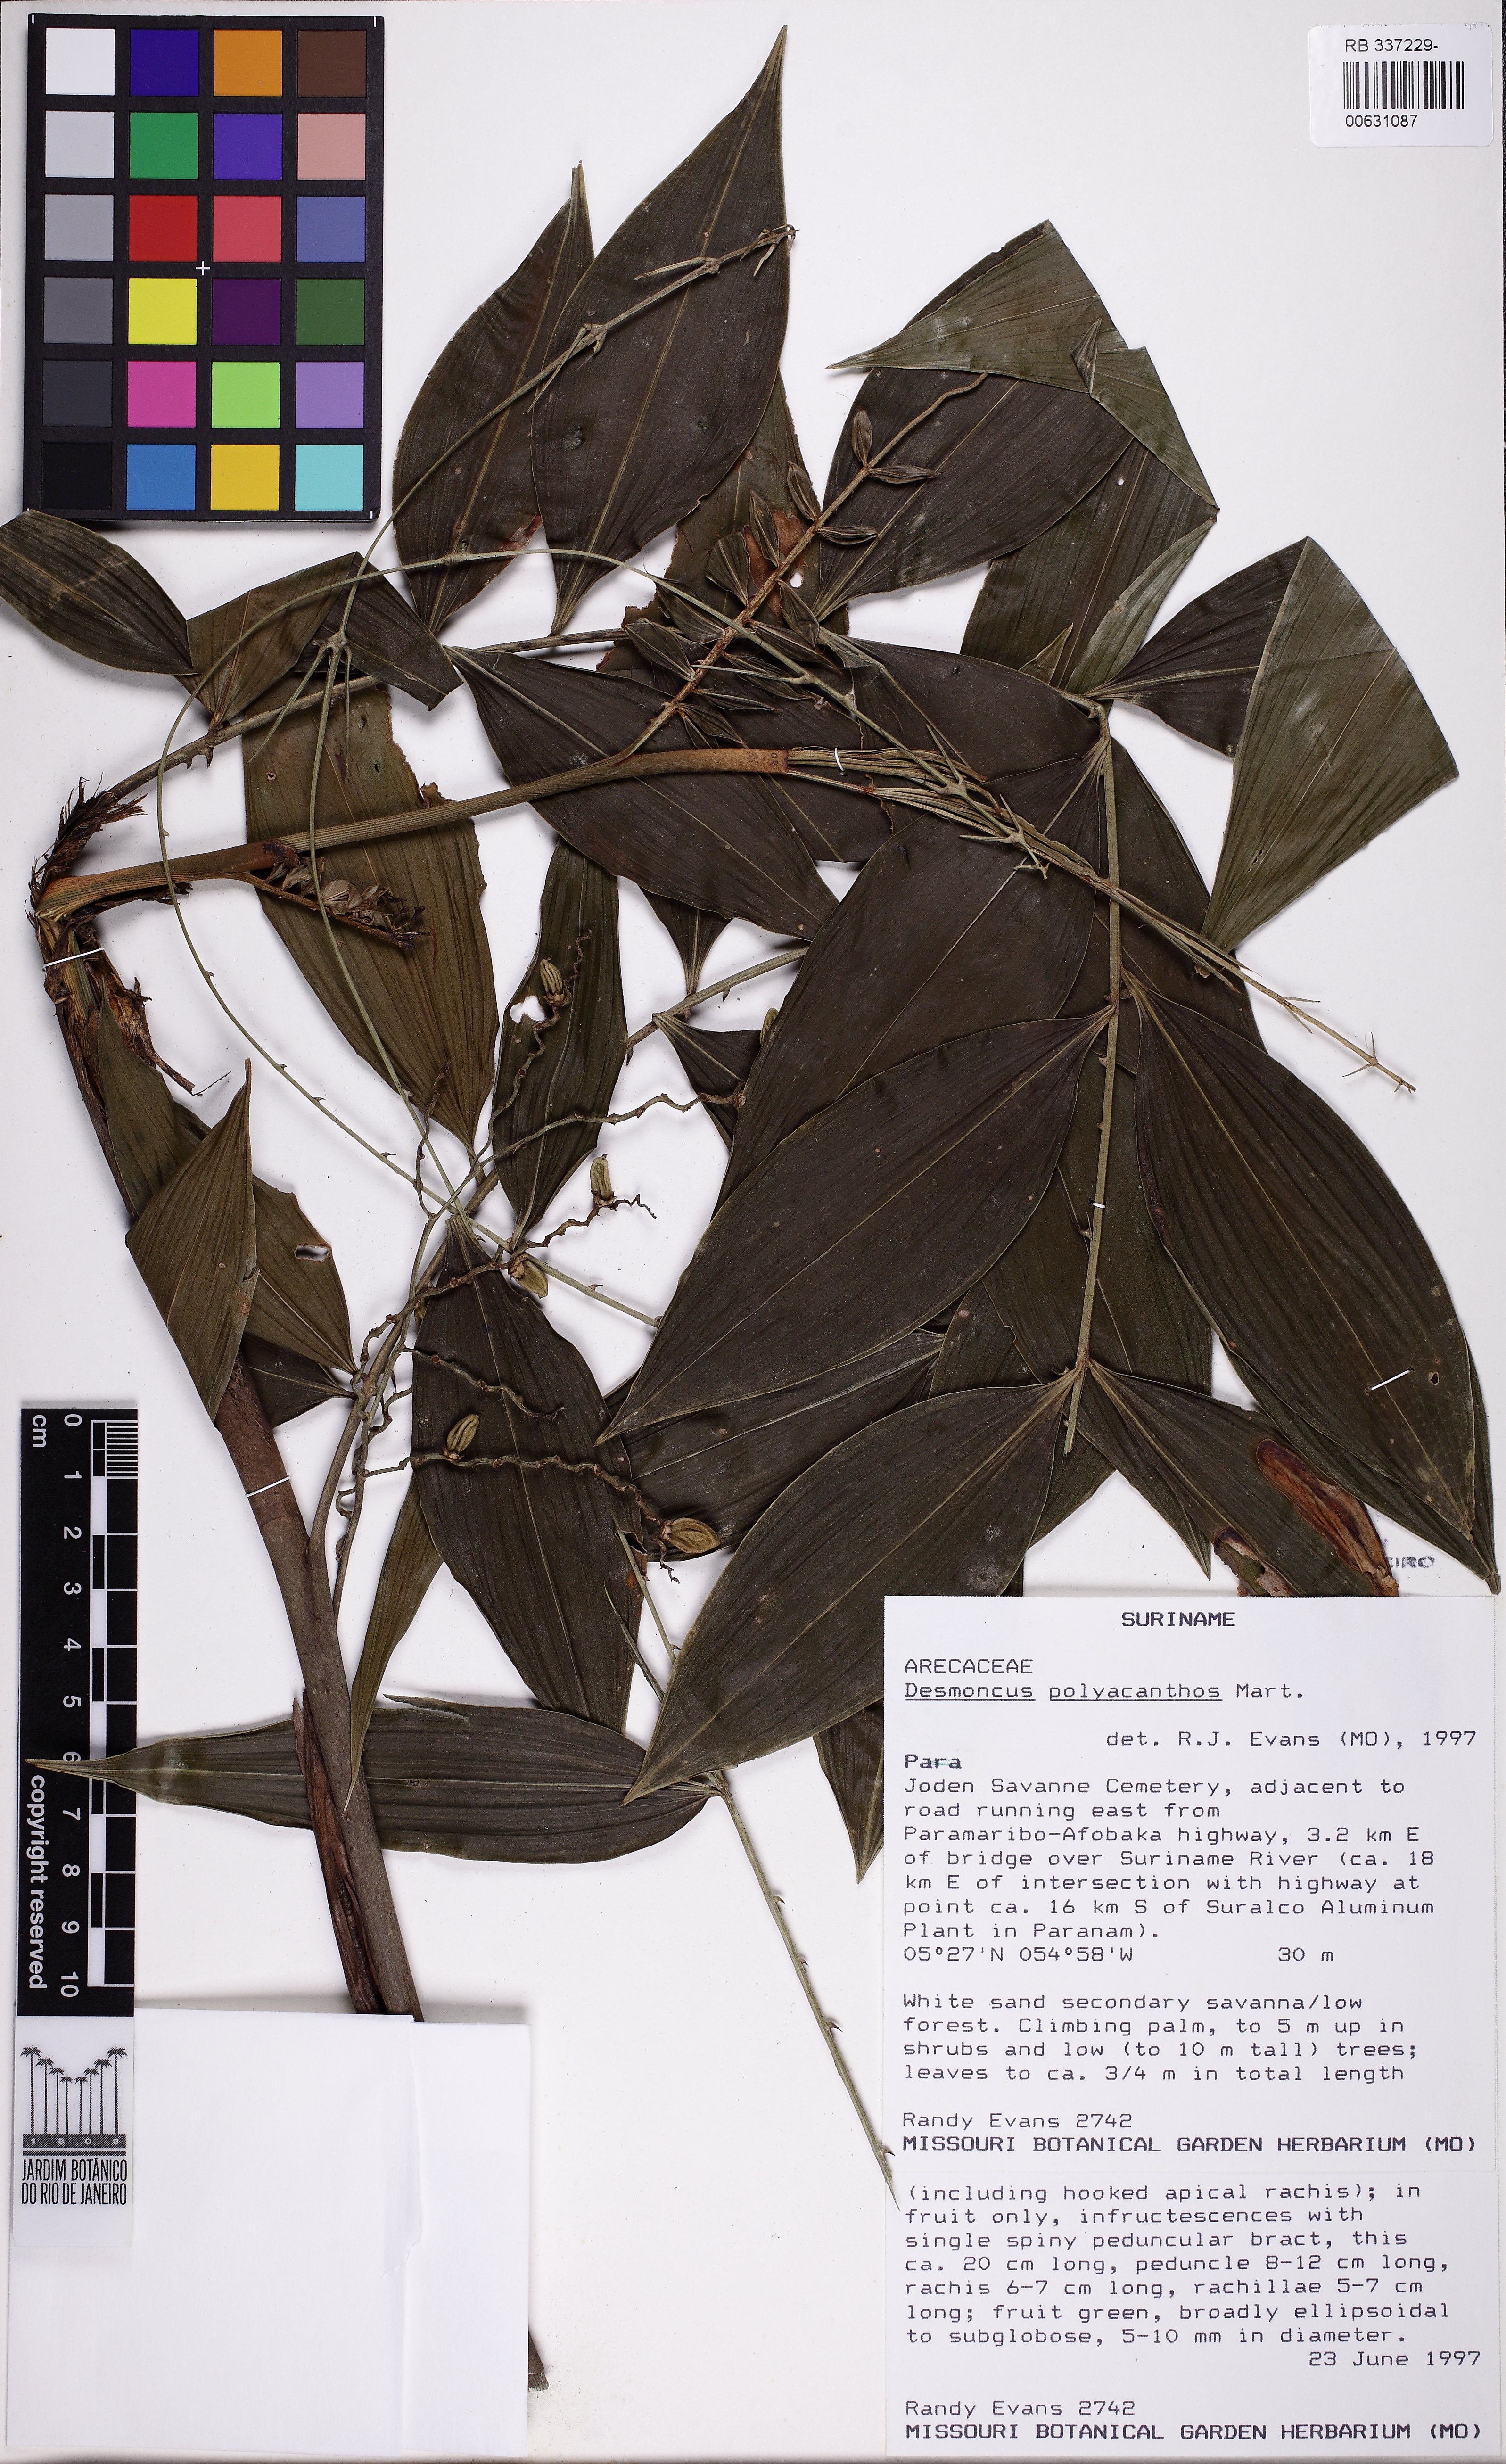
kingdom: Plantae
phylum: Tracheophyta
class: Liliopsida
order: Arecales
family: Arecaceae
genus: Desmoncus
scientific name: Desmoncus polyacanthos
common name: Suriname bramble palm
